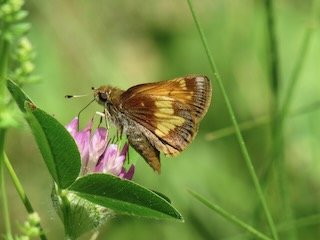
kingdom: Animalia
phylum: Arthropoda
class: Insecta
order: Lepidoptera
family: Hesperiidae
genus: Lon
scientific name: Lon hobomok
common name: Hobomok Skipper
